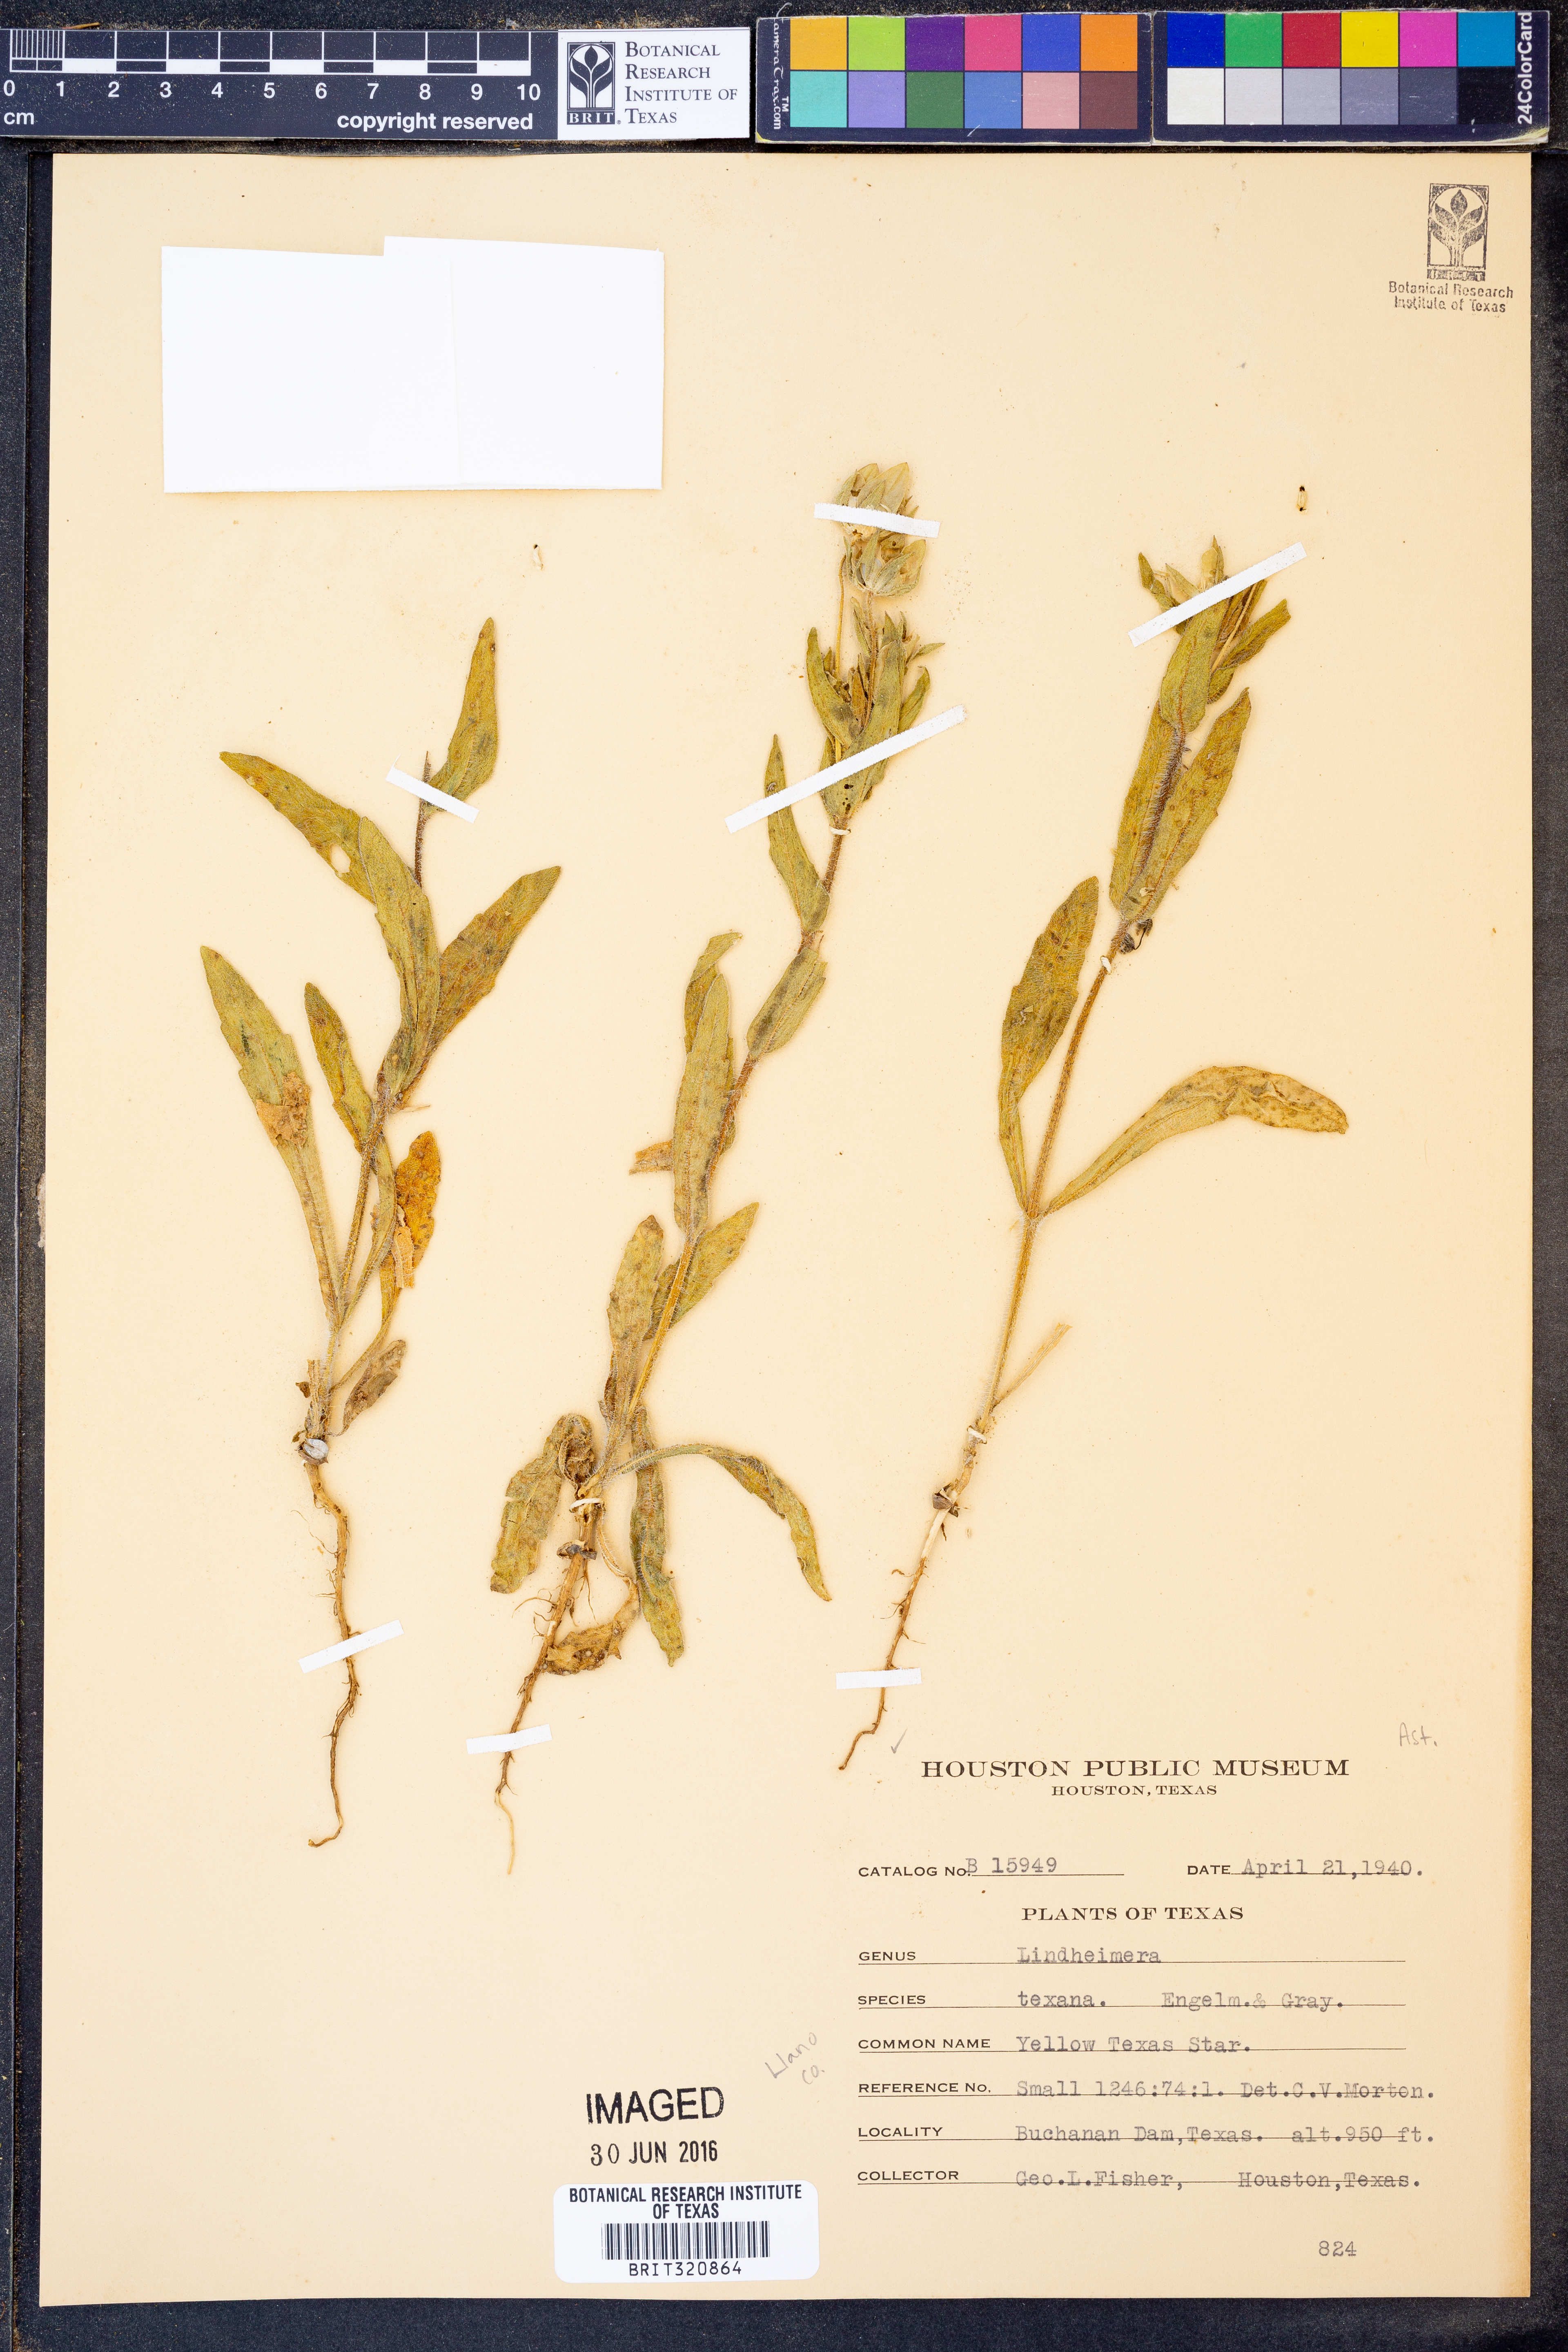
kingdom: Plantae
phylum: Tracheophyta
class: Magnoliopsida
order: Asterales
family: Asteraceae
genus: Lindheimera
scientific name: Lindheimera texana
